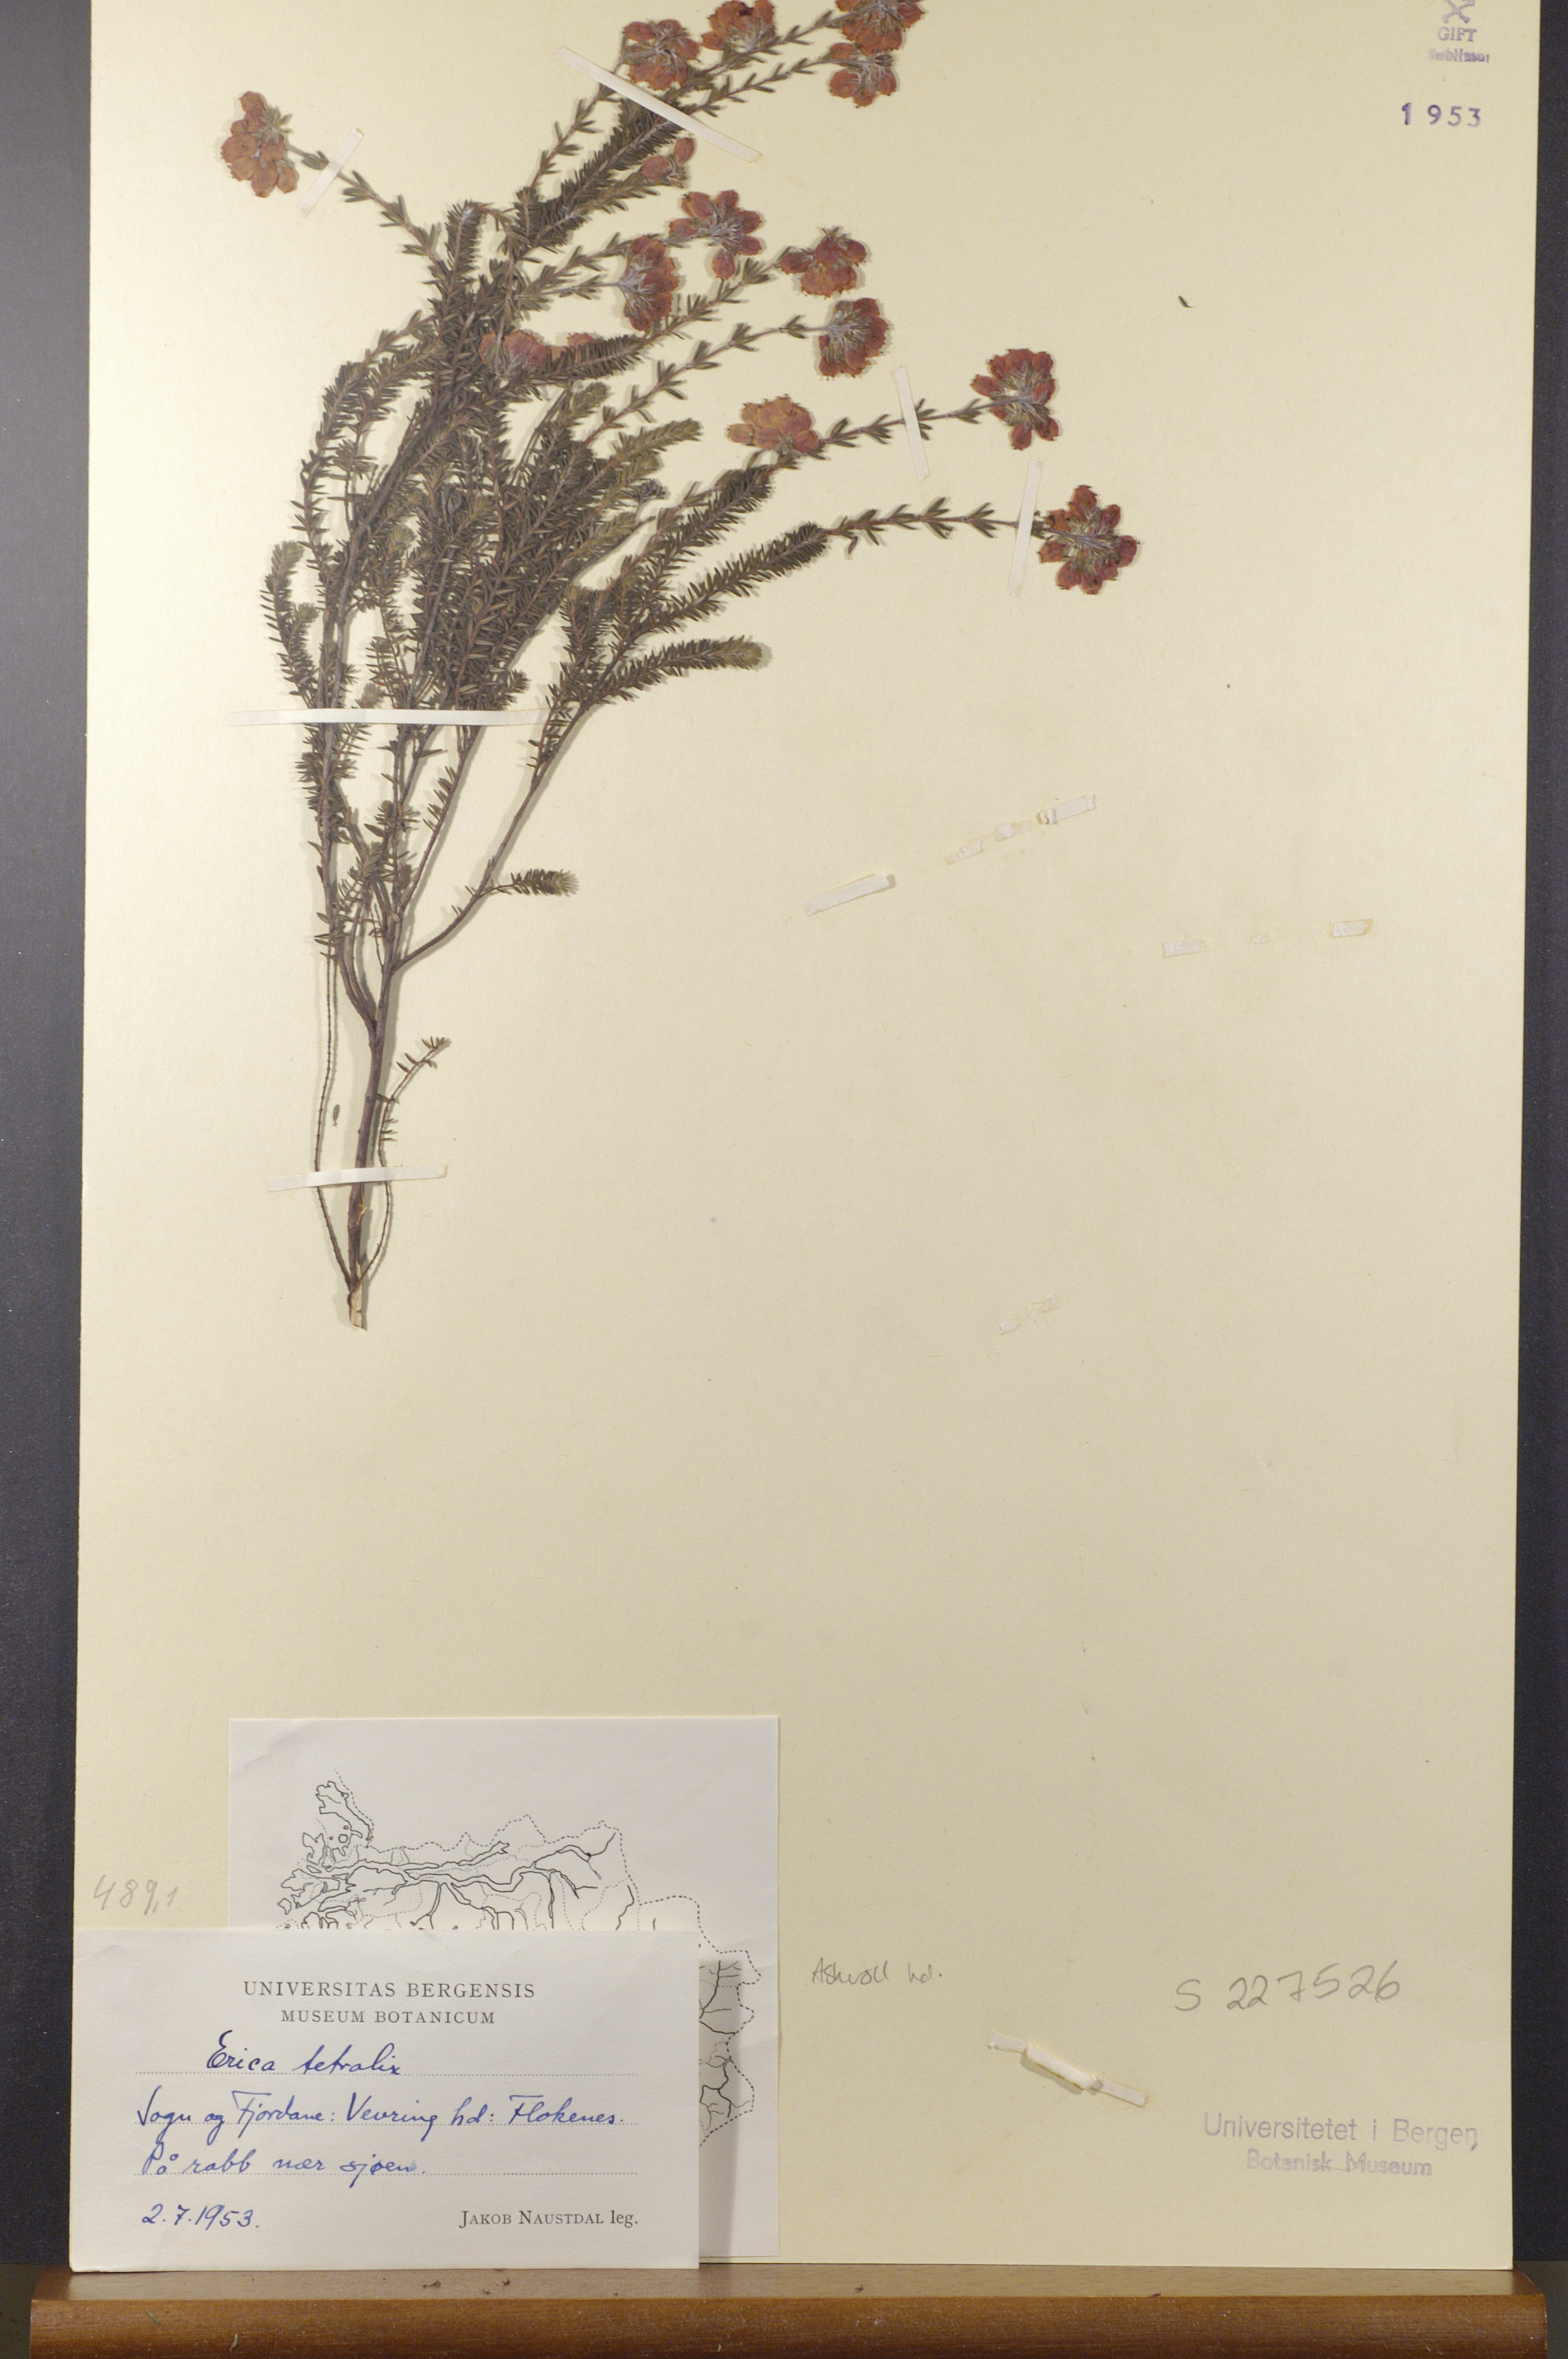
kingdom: Plantae
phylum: Tracheophyta
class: Magnoliopsida
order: Ericales
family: Ericaceae
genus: Erica
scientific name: Erica tetralix
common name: Cross-leaved heath
